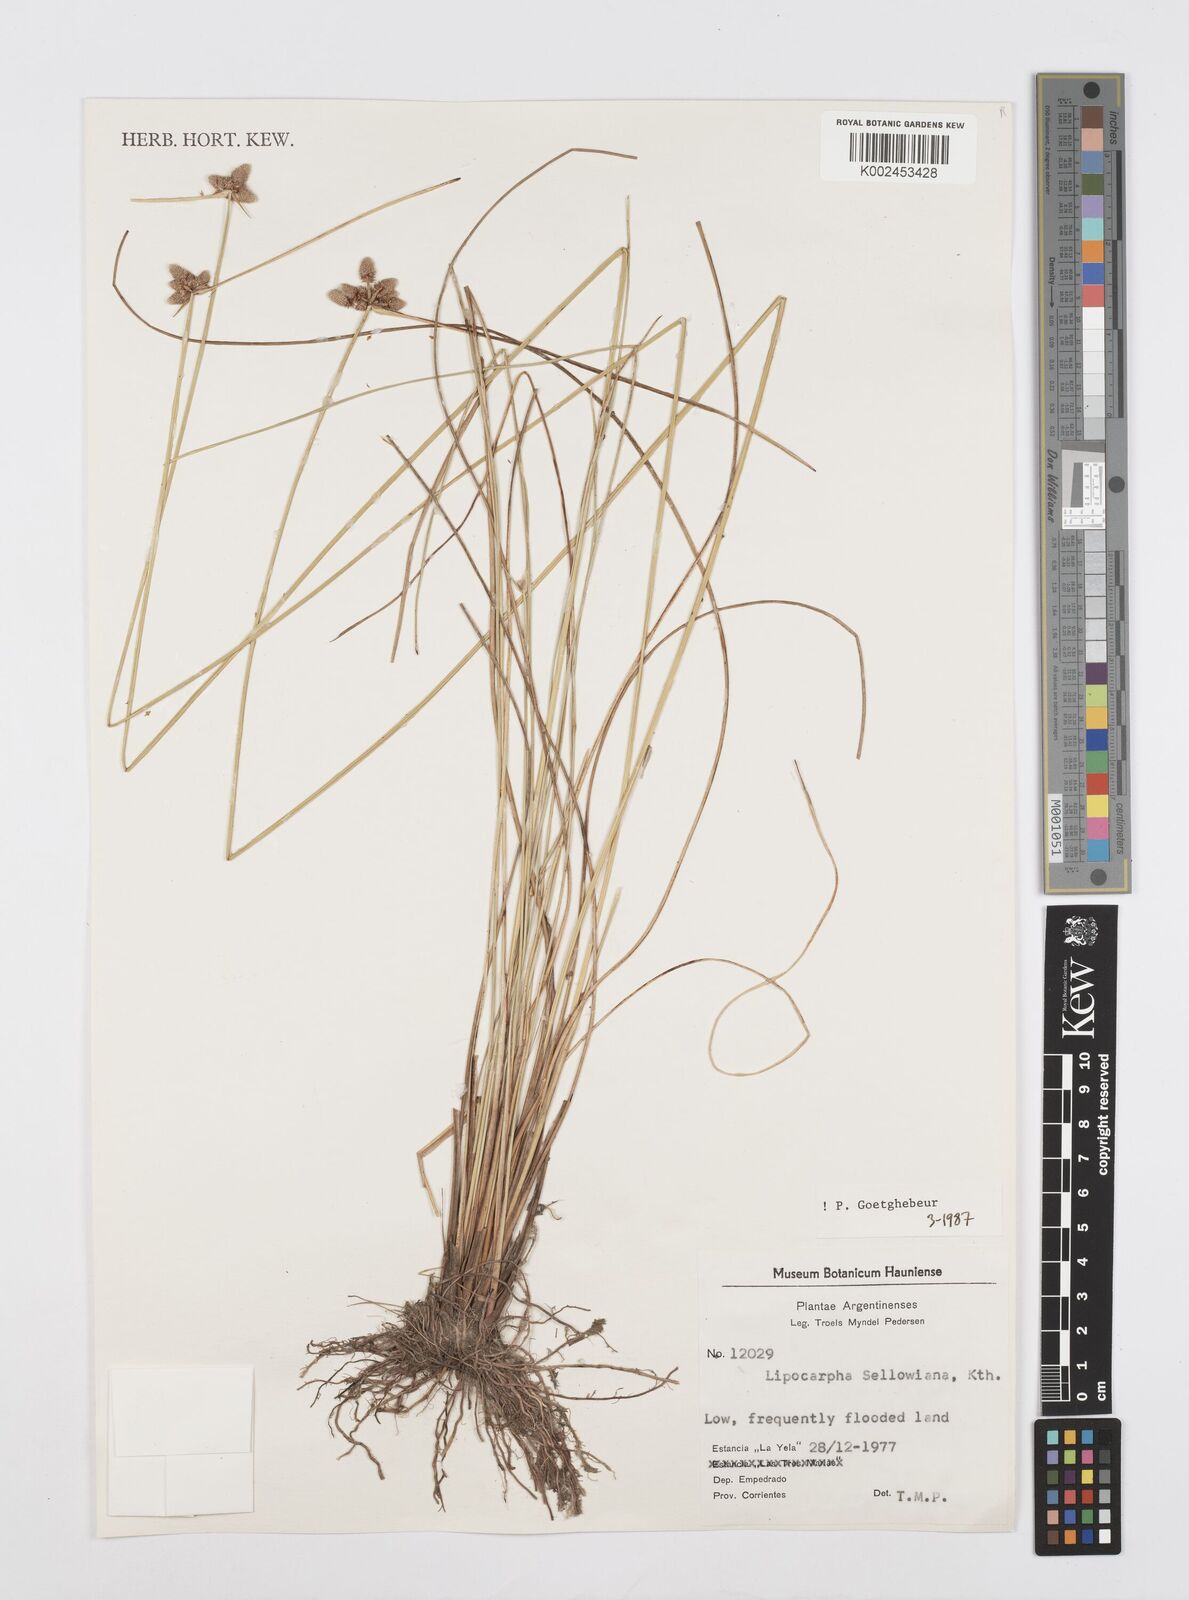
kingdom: Plantae
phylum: Tracheophyta
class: Liliopsida
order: Poales
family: Cyperaceae
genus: Cyperus
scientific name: Cyperus lanceolatus
